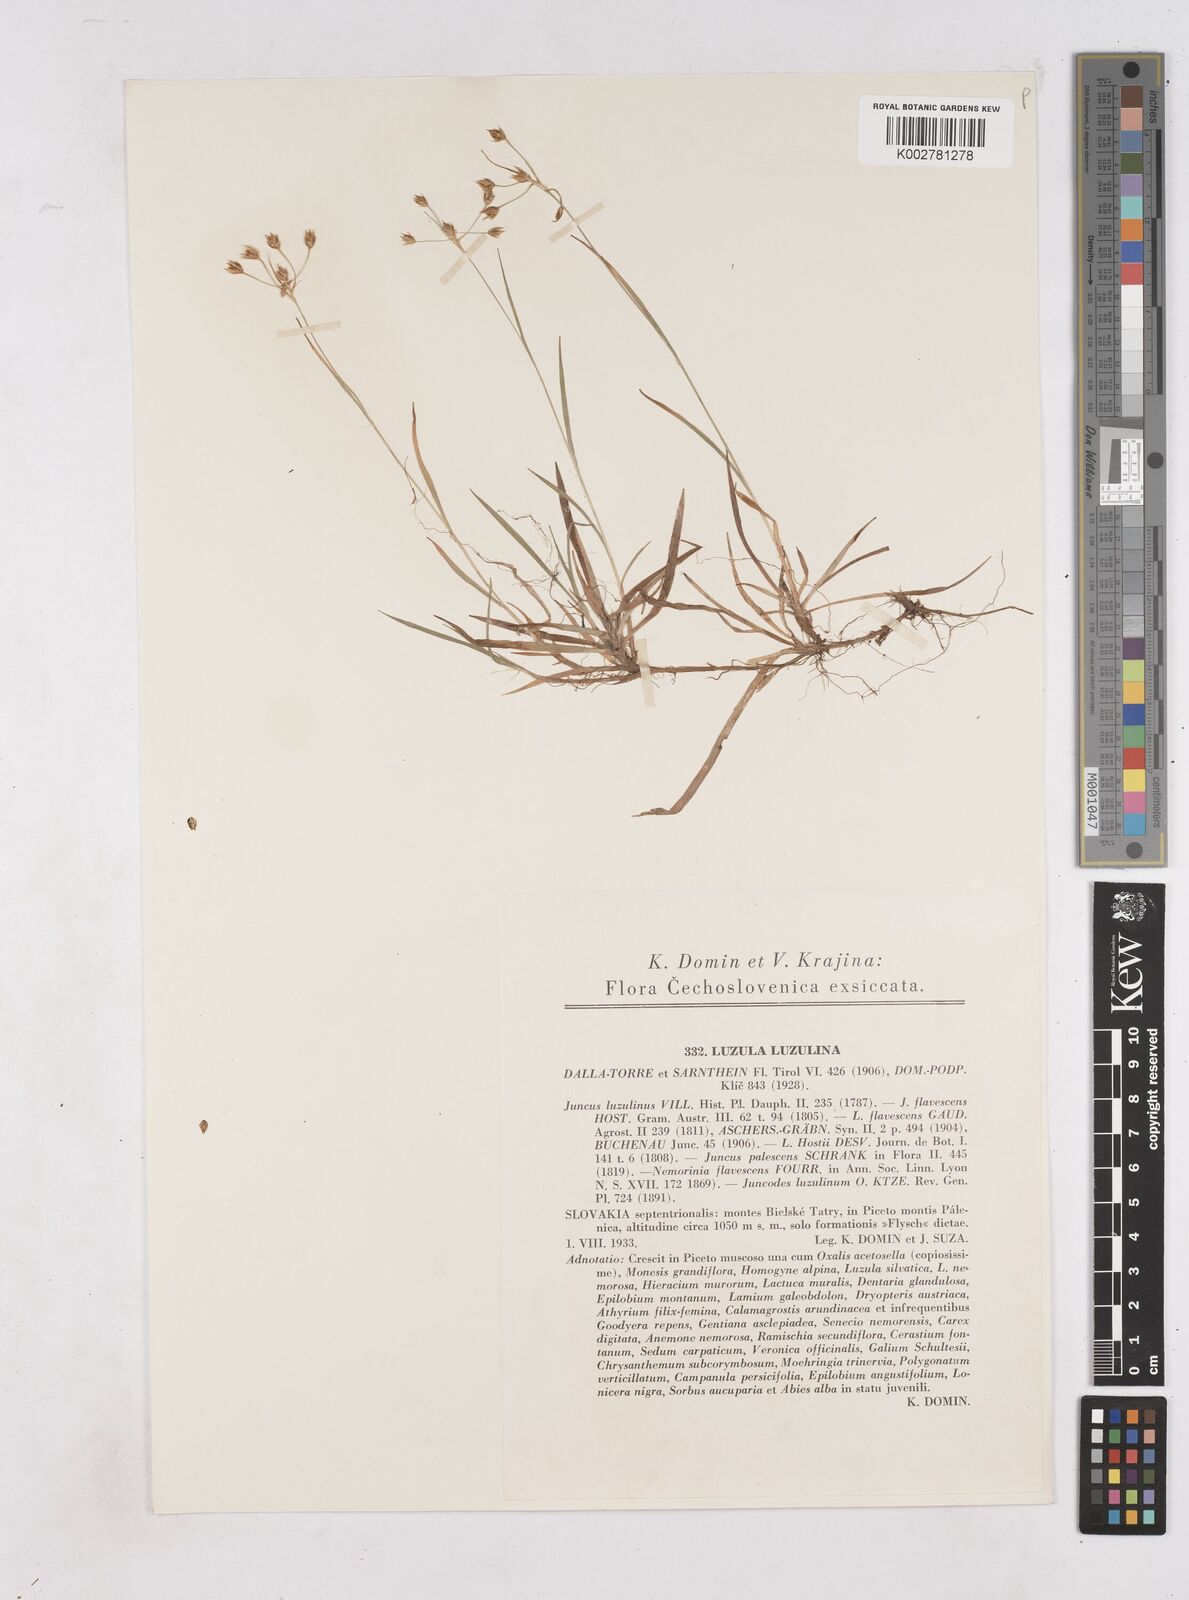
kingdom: Plantae
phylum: Tracheophyta
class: Liliopsida
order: Poales
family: Juncaceae
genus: Luzula
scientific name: Luzula luzulina
